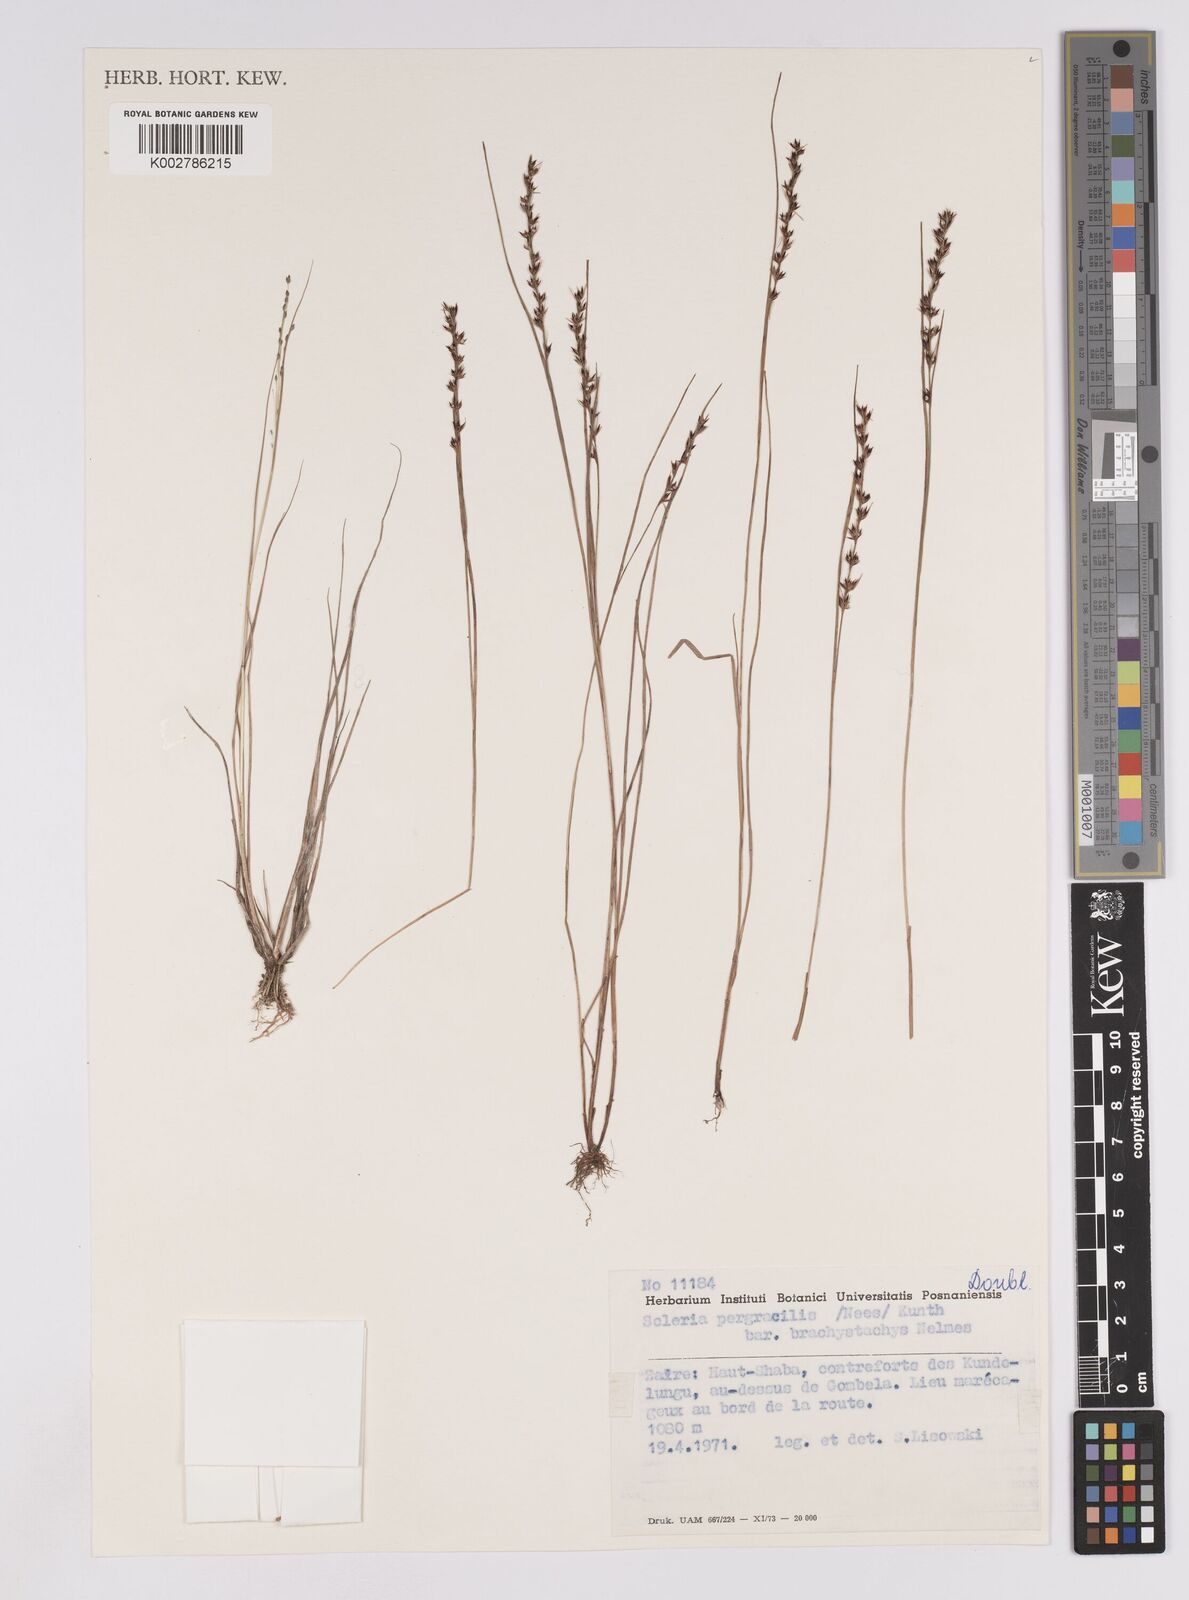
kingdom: Plantae
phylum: Tracheophyta
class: Liliopsida
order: Poales
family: Cyperaceae
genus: Scleria
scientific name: Scleria pergracilis
